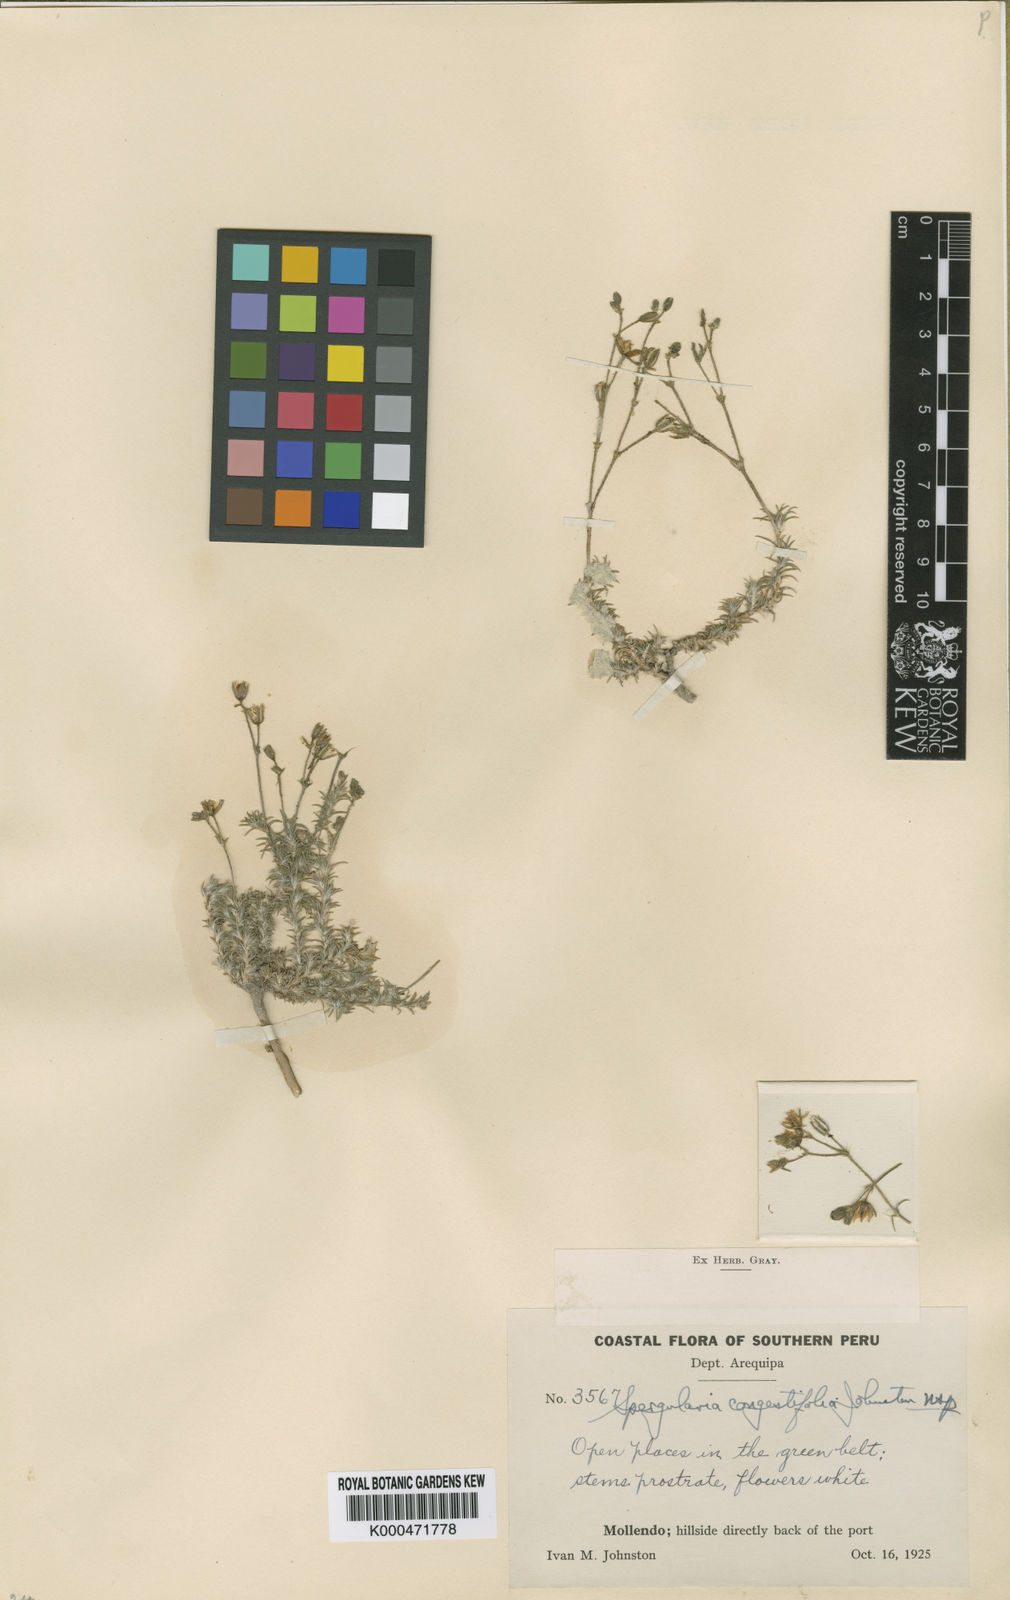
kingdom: Plantae
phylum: Tracheophyta
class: Magnoliopsida
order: Caryophyllales
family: Caryophyllaceae
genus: Spergularia
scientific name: Spergularia congestifolia
